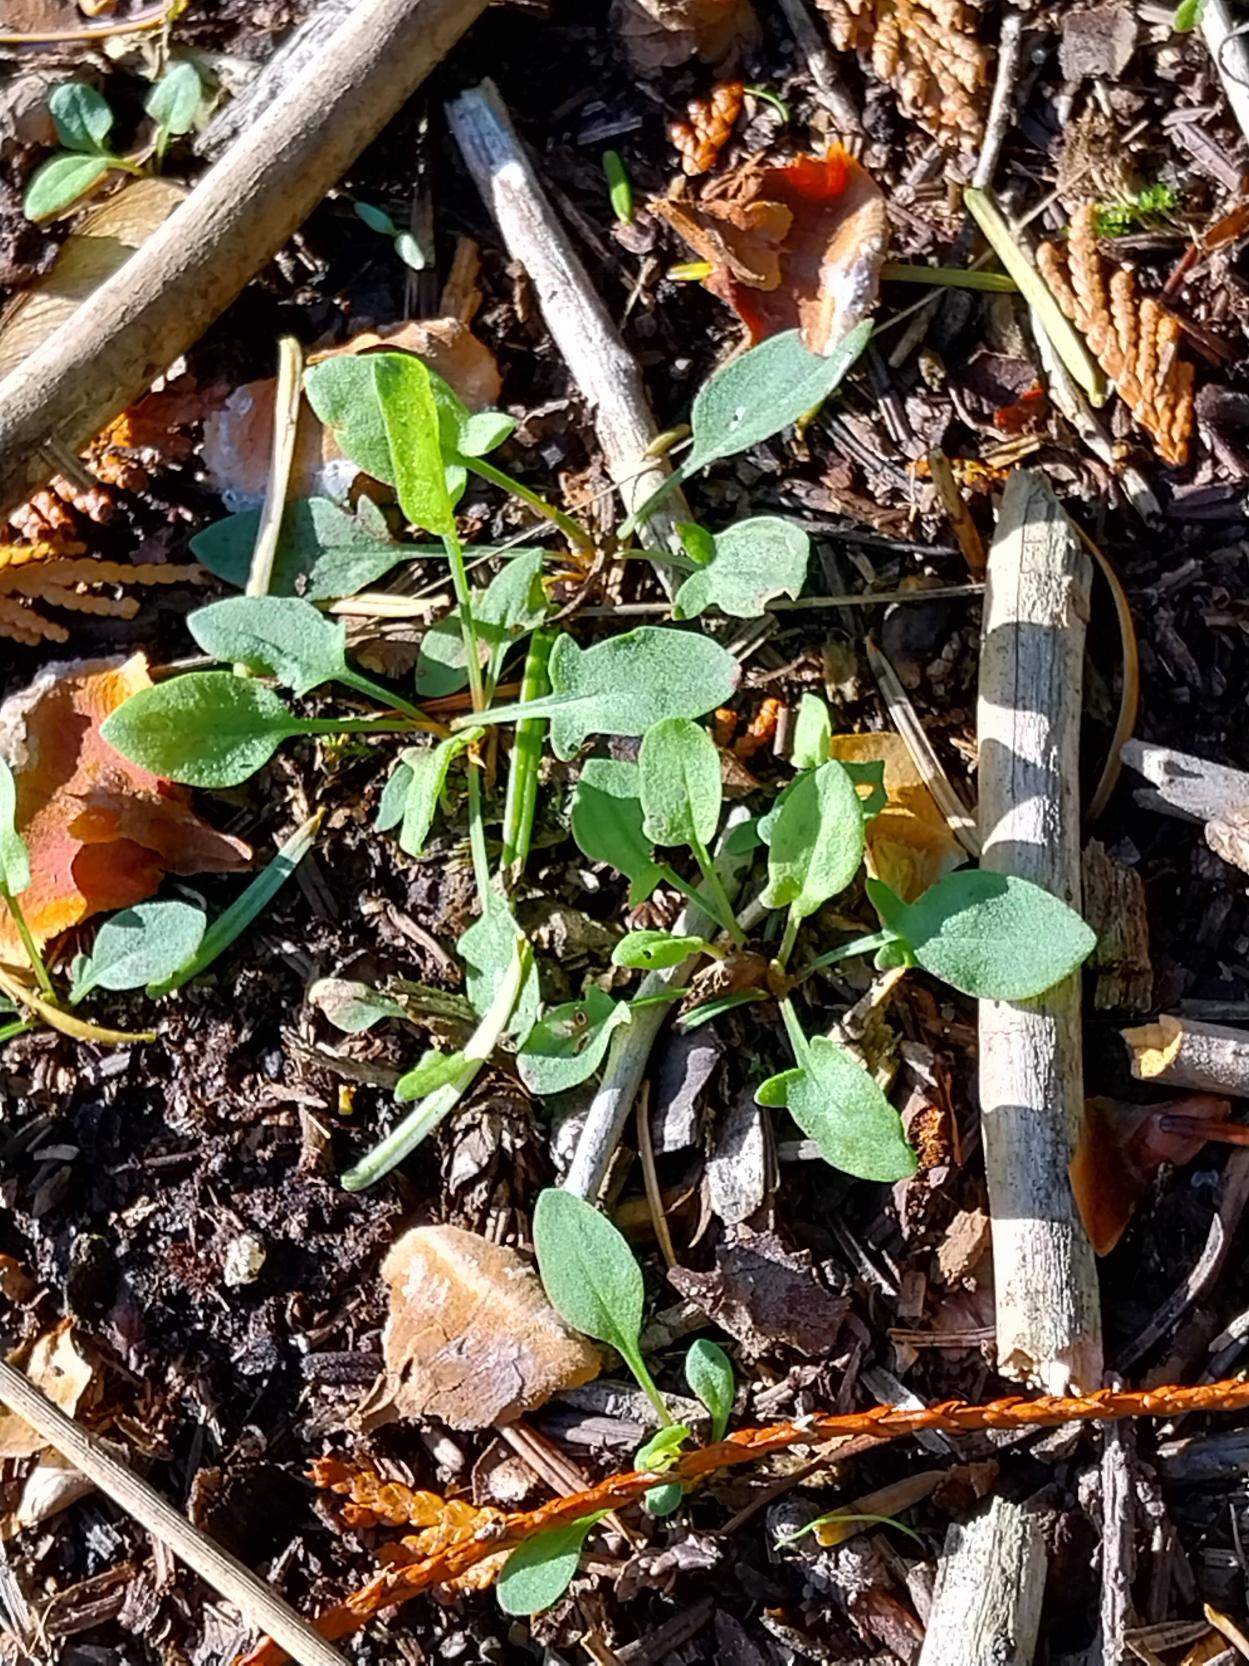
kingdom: Plantae
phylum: Tracheophyta
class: Magnoliopsida
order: Caryophyllales
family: Polygonaceae
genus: Rumex
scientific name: Rumex acetosella
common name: Rødknæ
